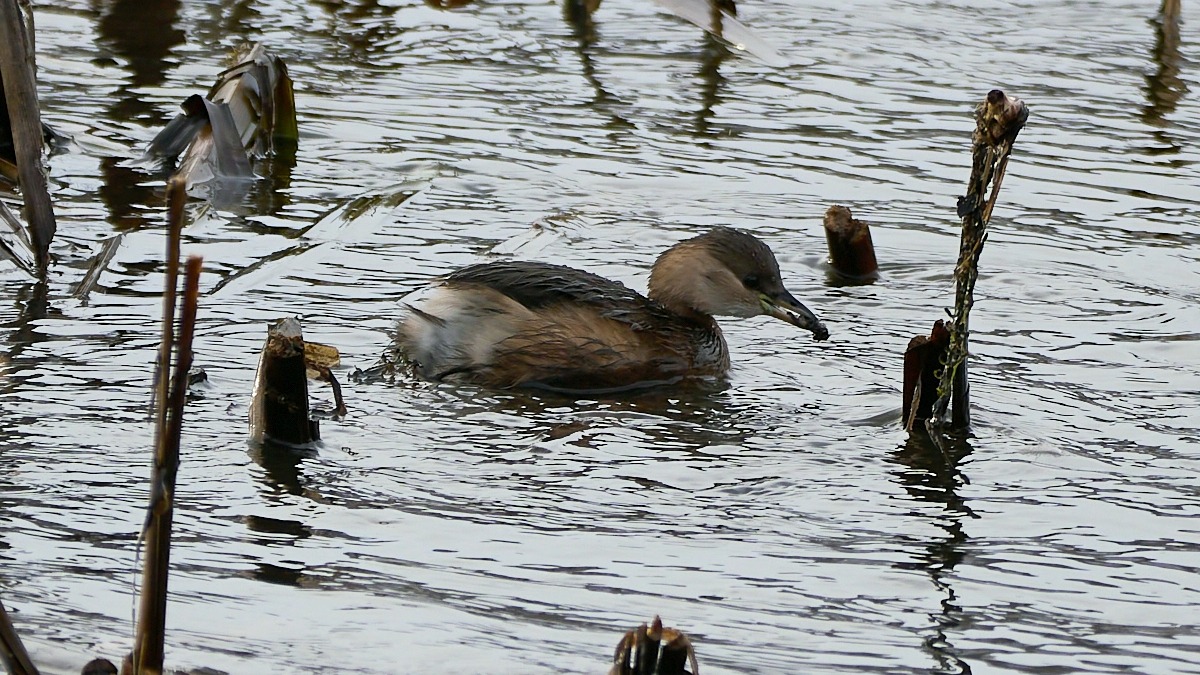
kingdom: Animalia
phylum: Chordata
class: Aves
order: Podicipediformes
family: Podicipedidae
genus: Tachybaptus
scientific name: Tachybaptus ruficollis
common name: Lille lappedykker
